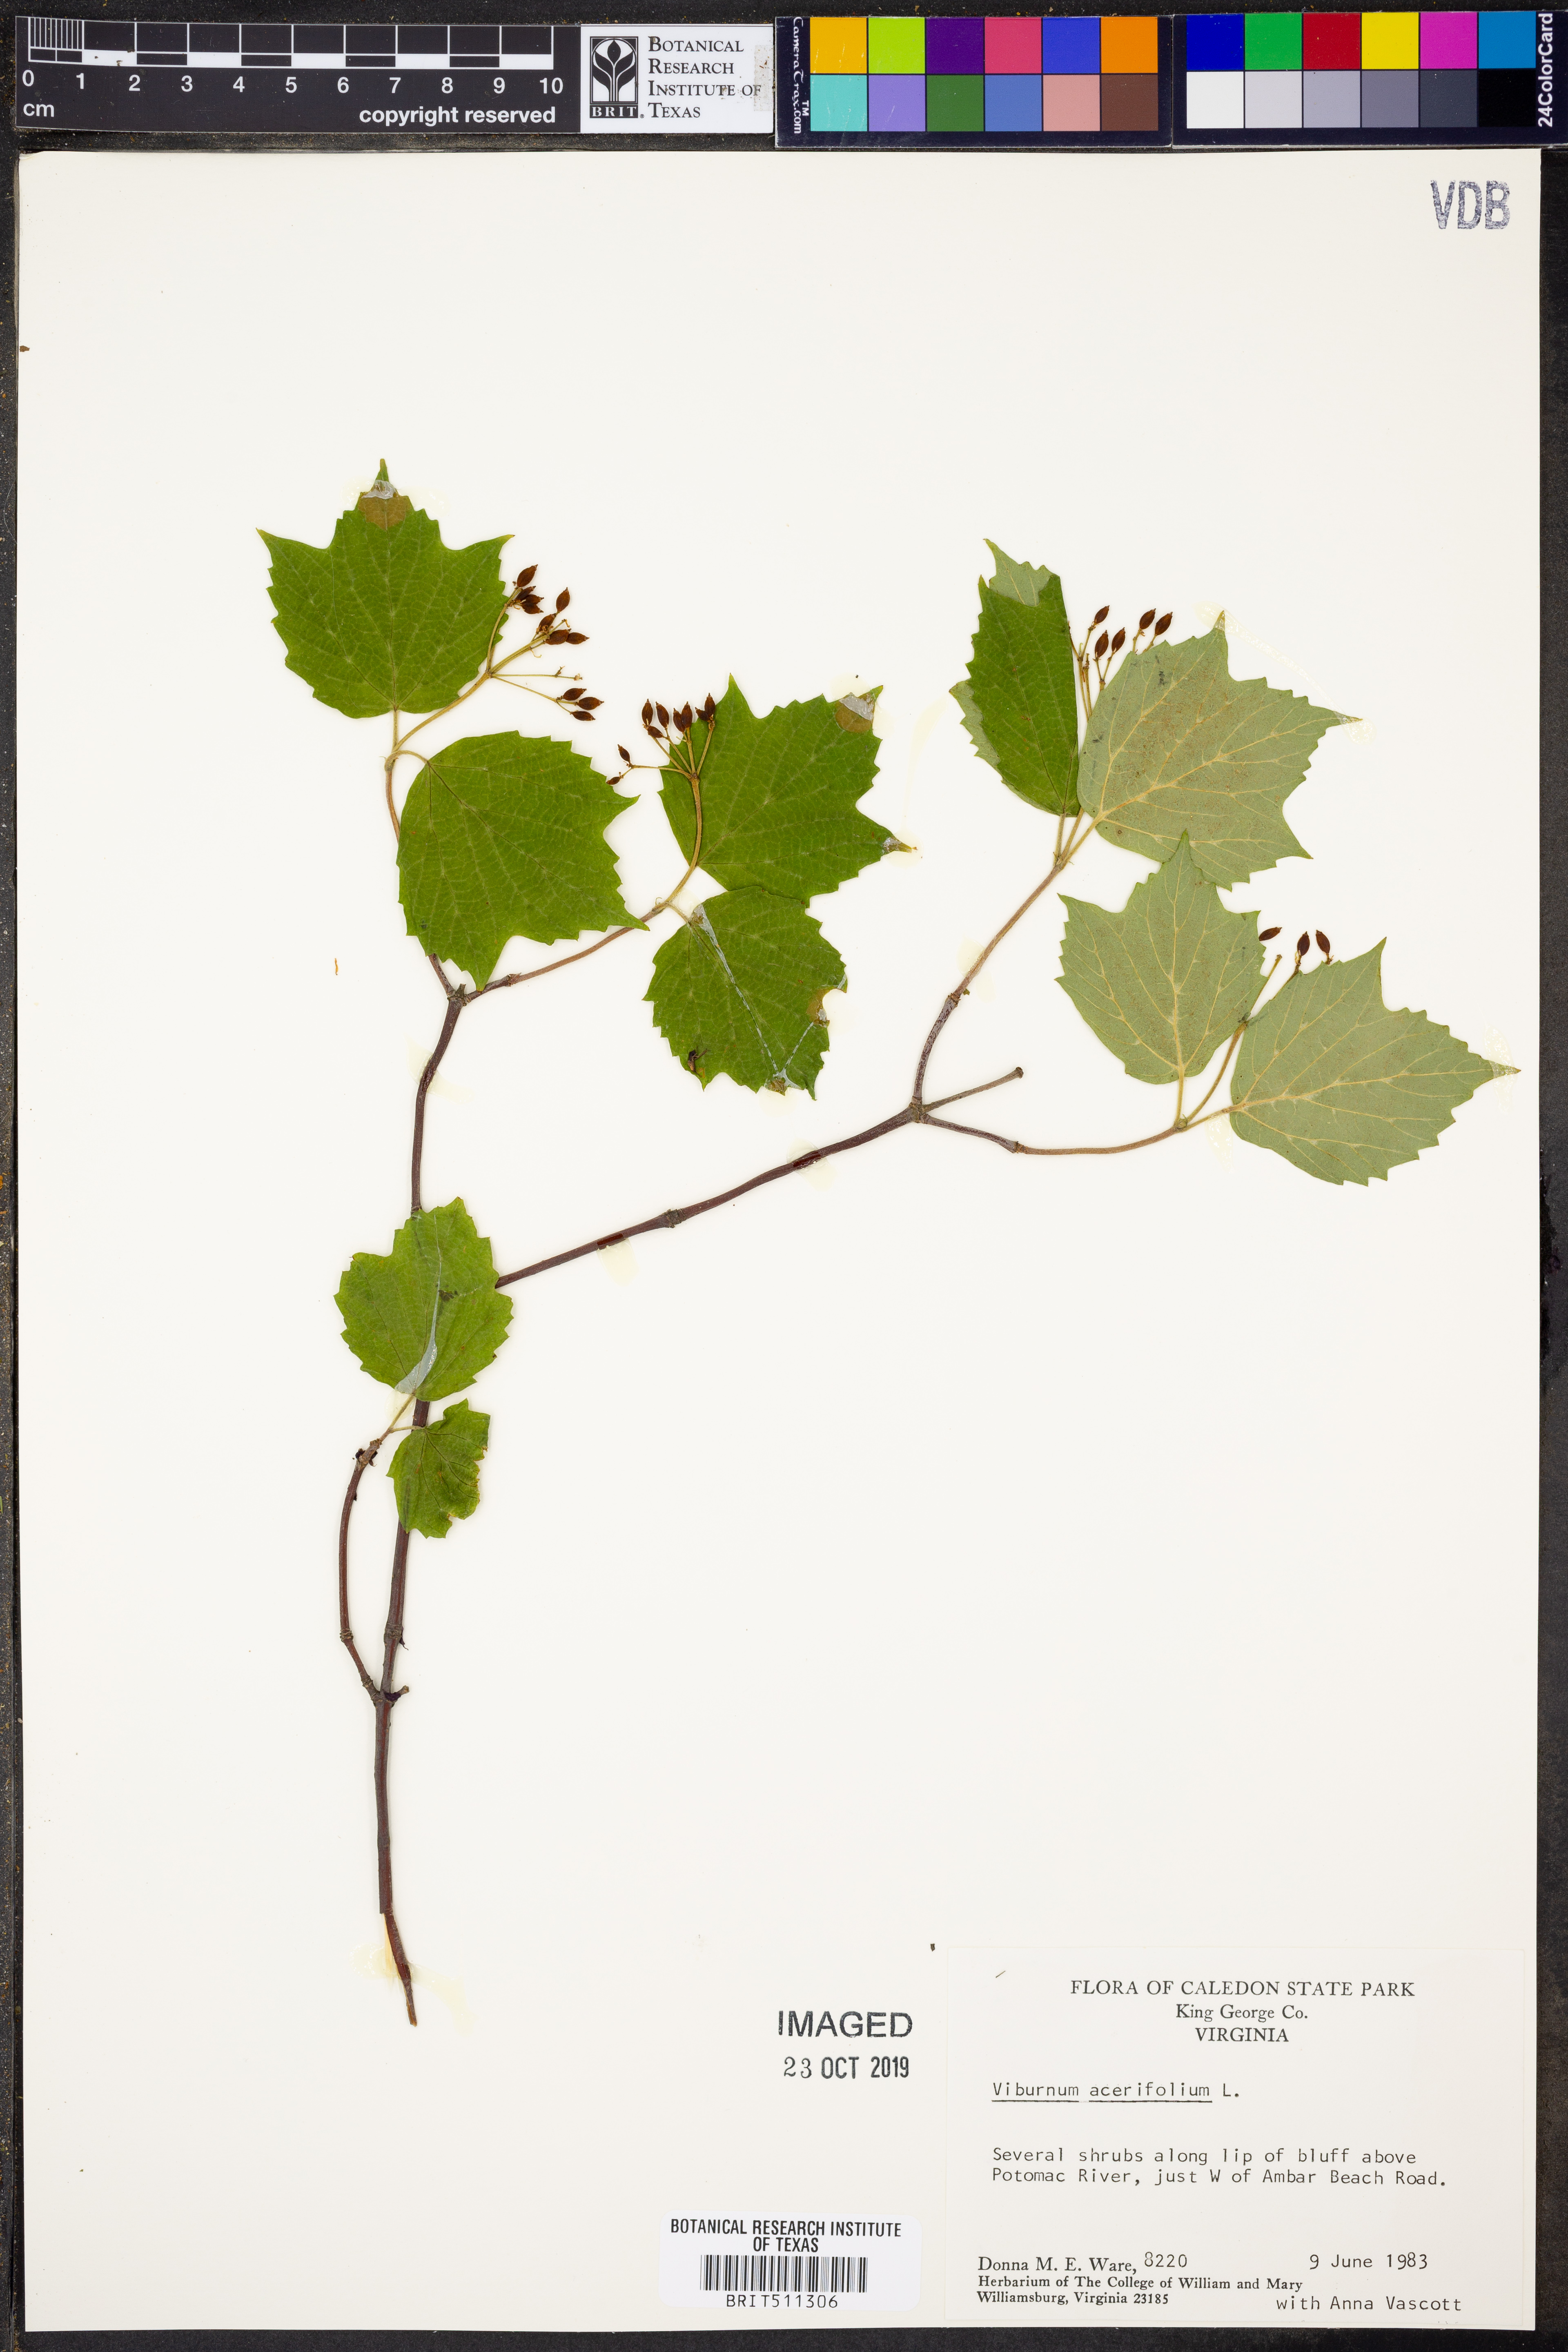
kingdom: Plantae
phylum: Tracheophyta
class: Magnoliopsida
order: Dipsacales
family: Viburnaceae
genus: Viburnum
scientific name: Viburnum acerifolium
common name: Dockmackie
